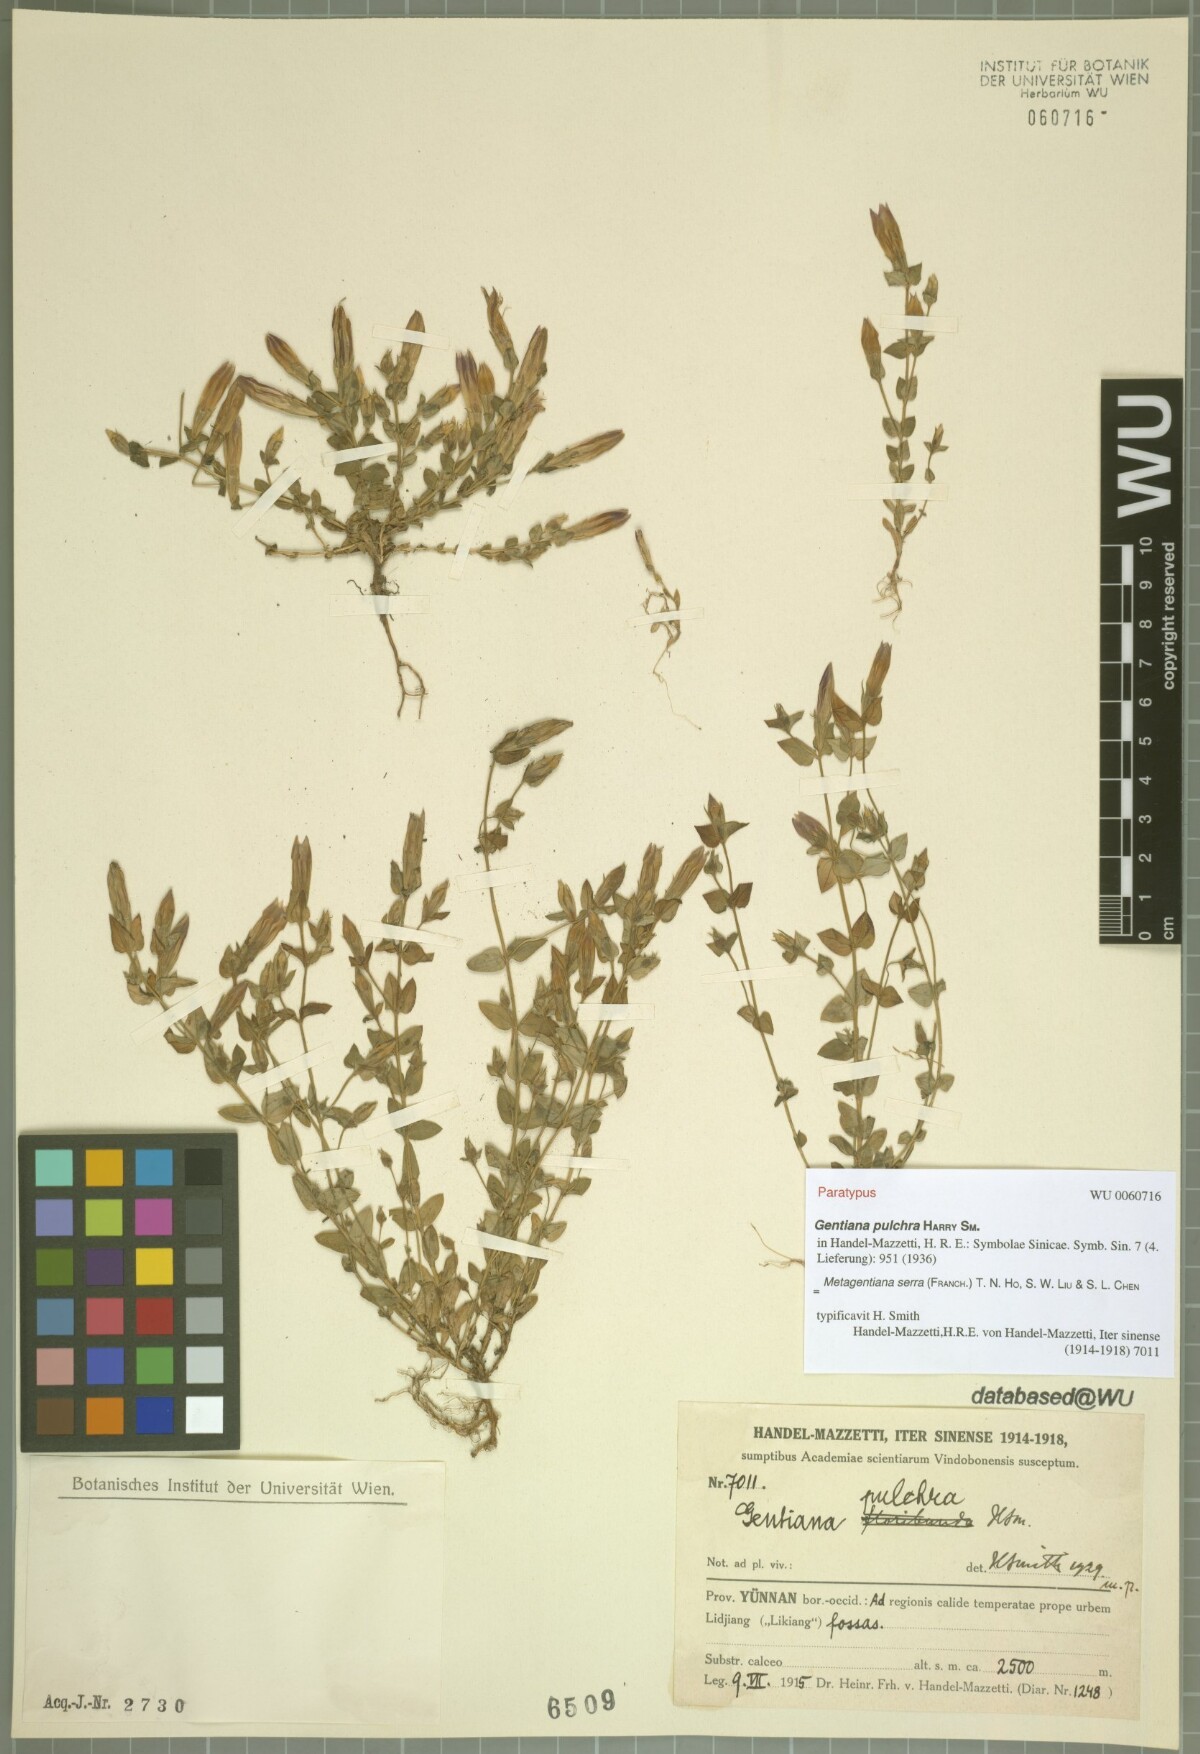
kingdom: Plantae
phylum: Tracheophyta
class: Magnoliopsida
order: Gentianales
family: Gentianaceae
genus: Metagentiana
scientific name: Metagentiana serra
